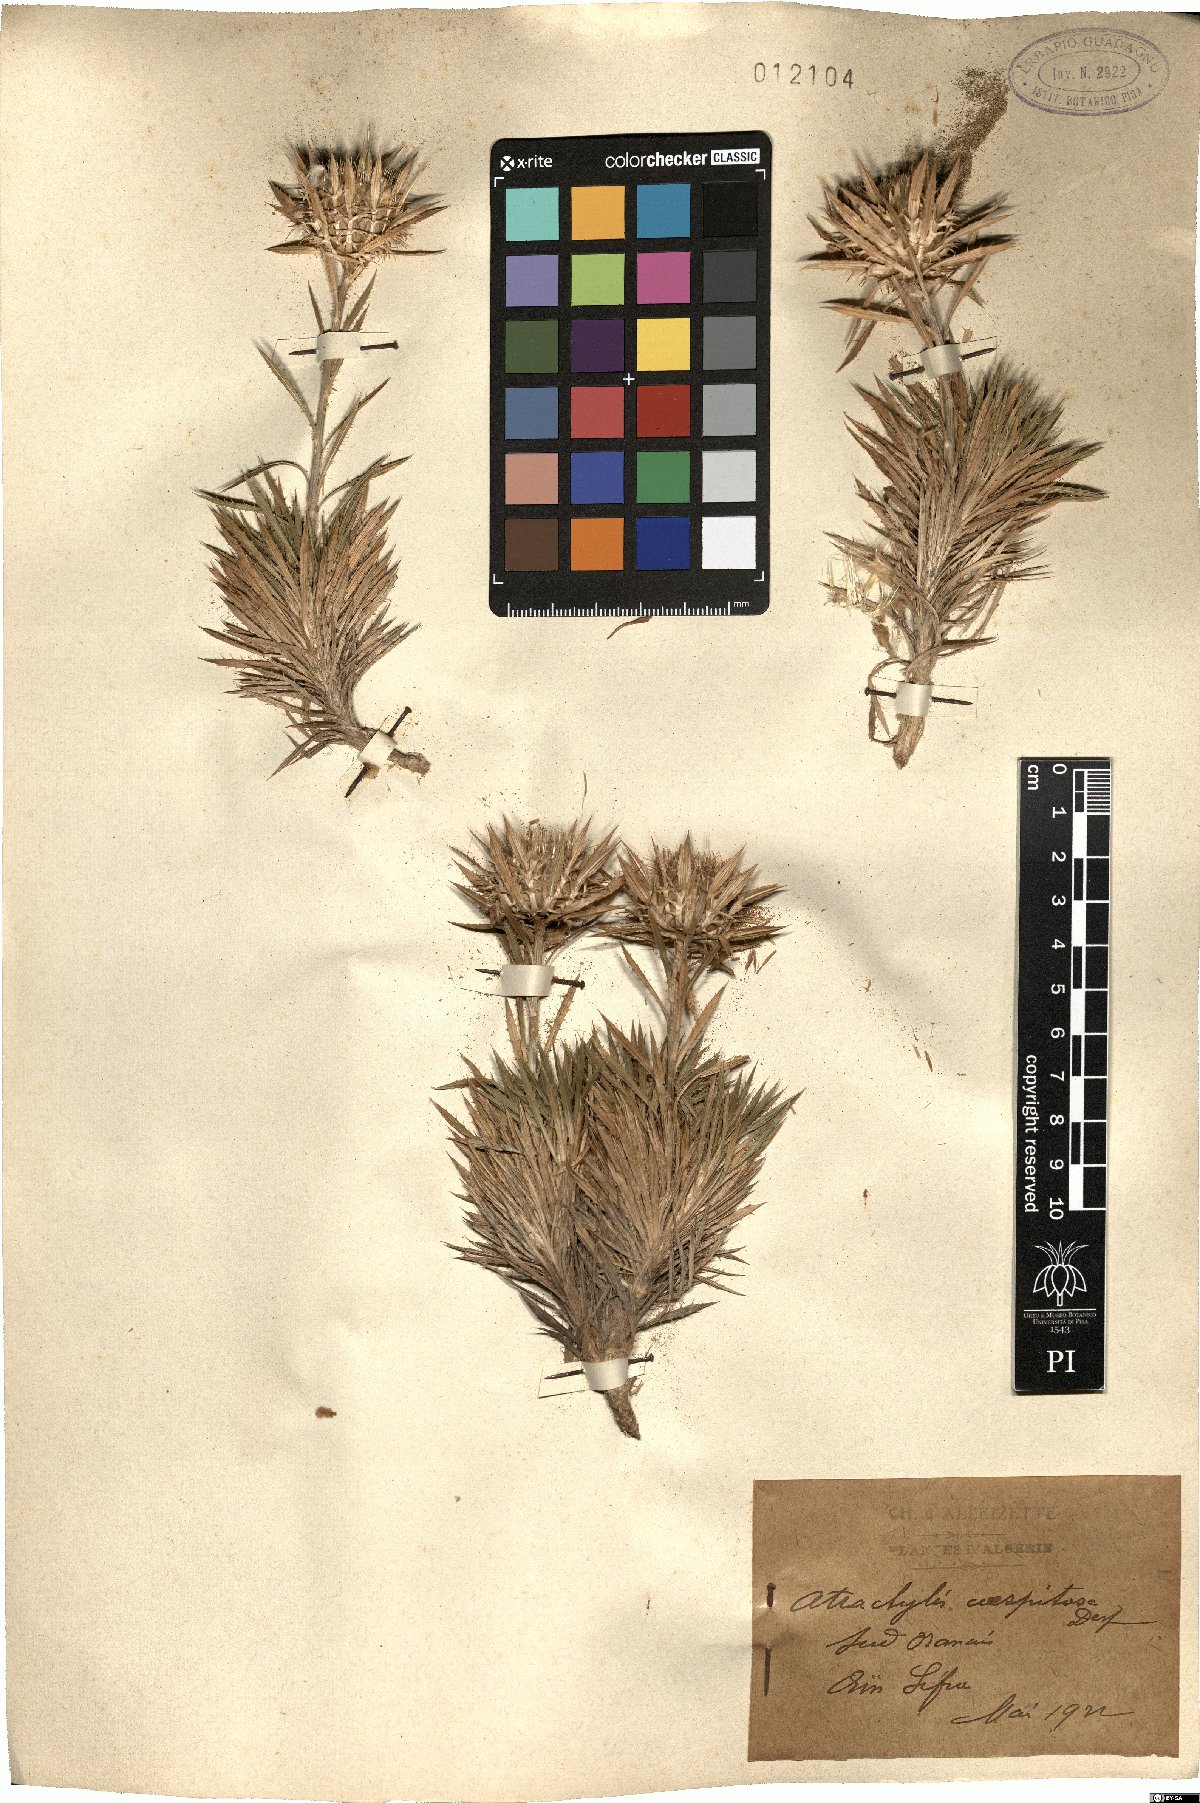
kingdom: Plantae
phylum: Tracheophyta
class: Magnoliopsida
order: Asterales
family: Asteraceae
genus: Atractylis
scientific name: Atractylis caespitosa
